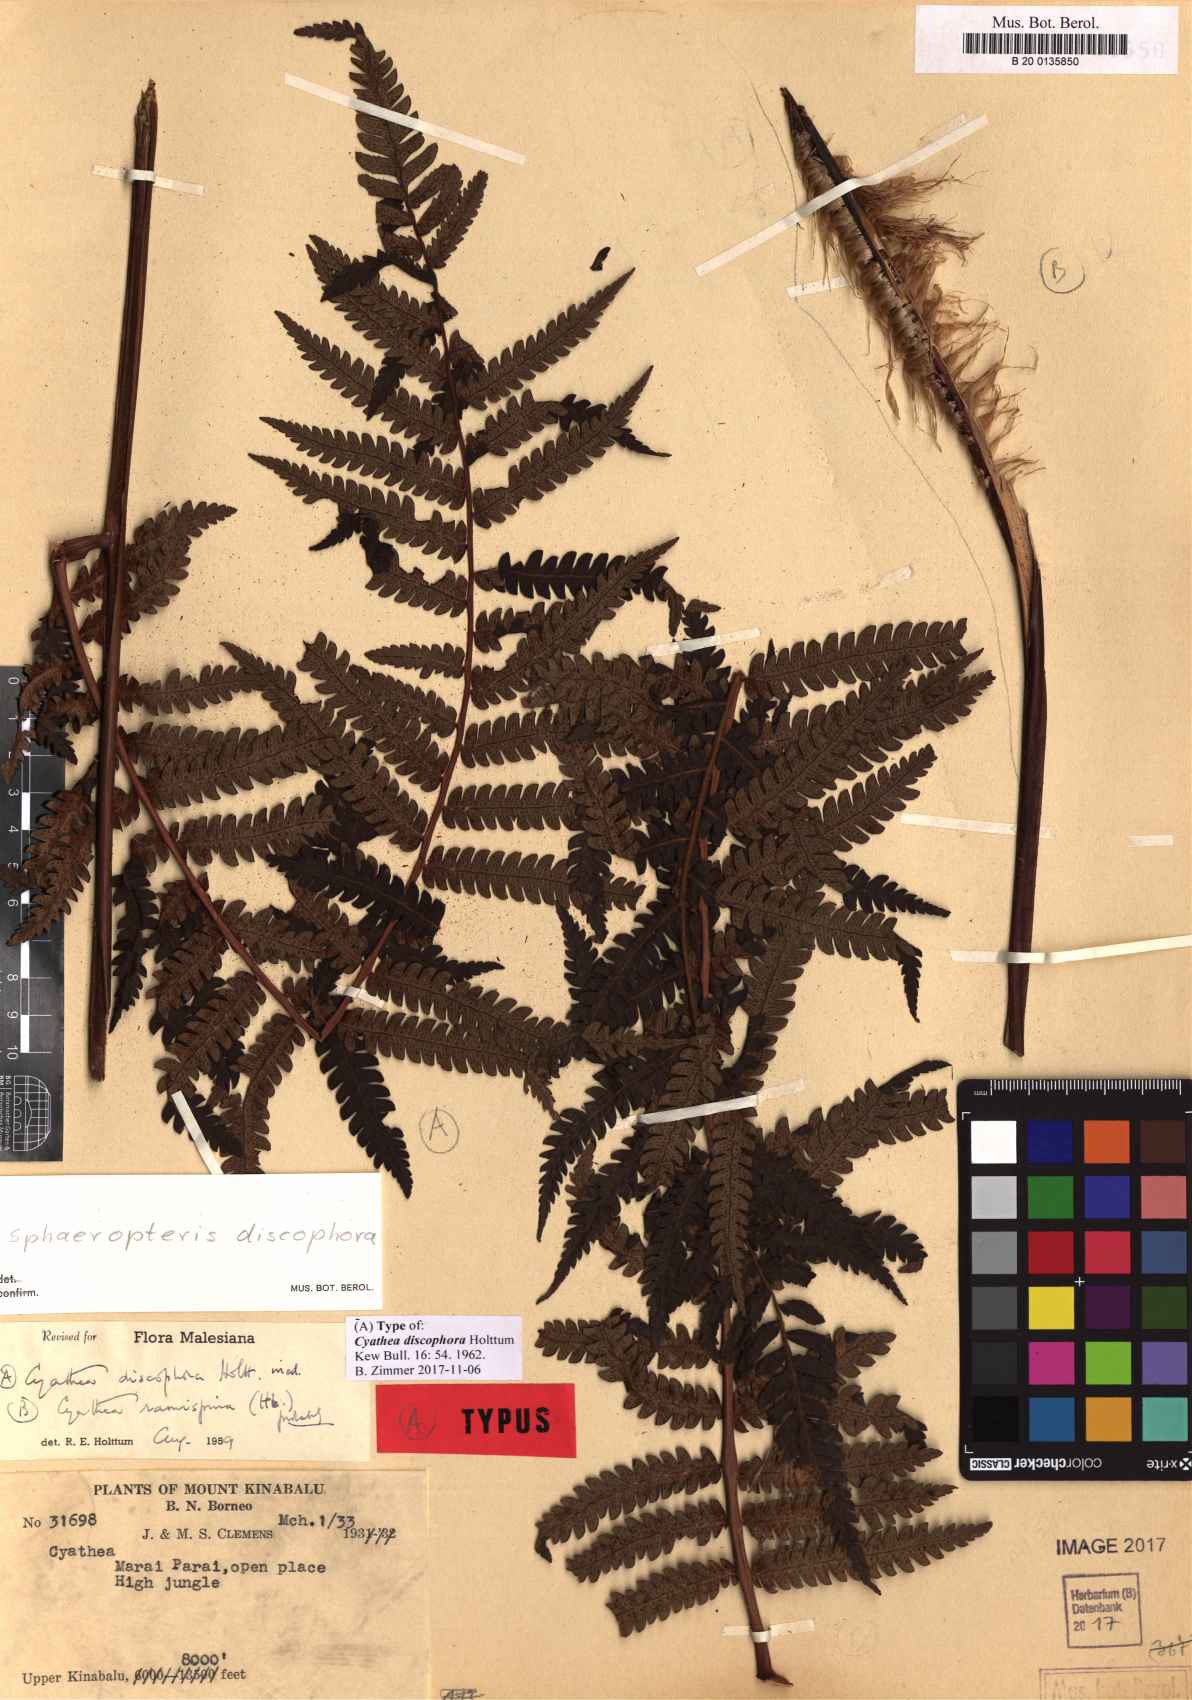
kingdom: Plantae
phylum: Tracheophyta
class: Polypodiopsida
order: Cyatheales
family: Cyatheaceae
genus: Sphaeropteris
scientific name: Sphaeropteris discophora
